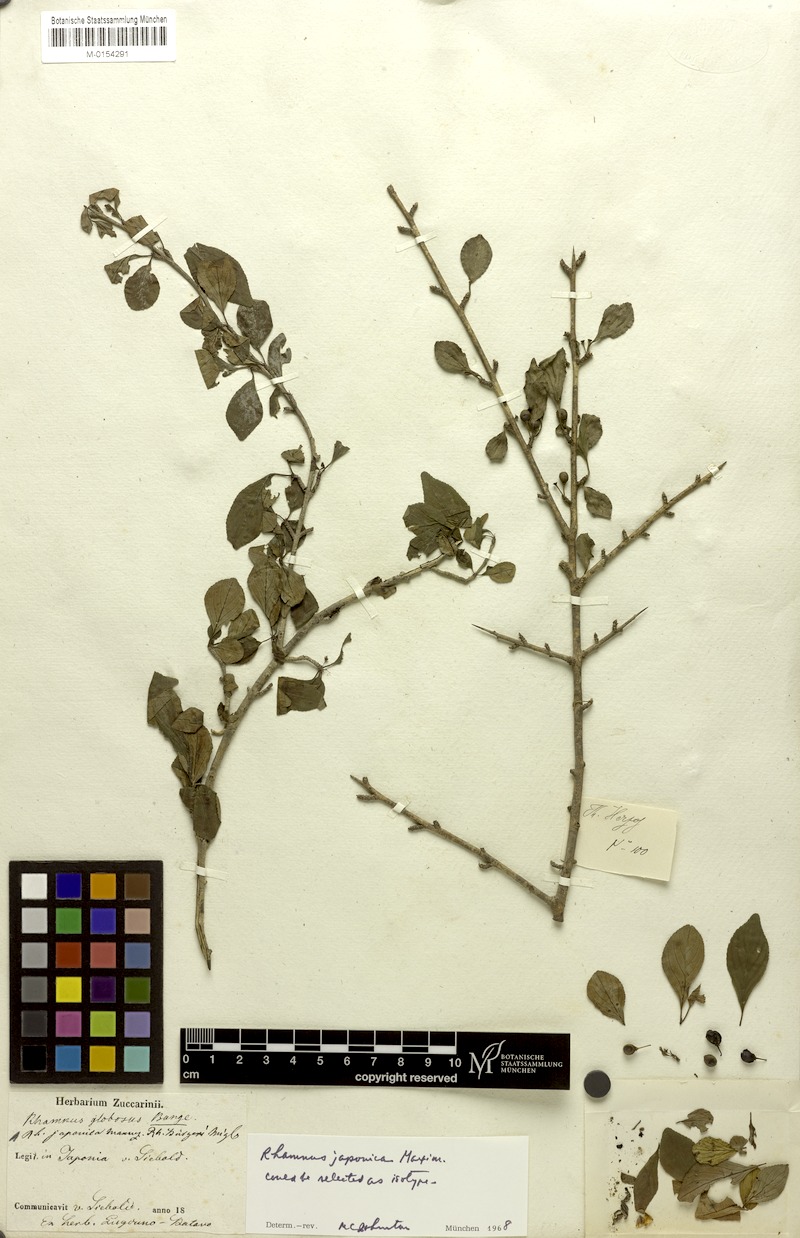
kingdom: Plantae
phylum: Tracheophyta
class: Magnoliopsida
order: Rosales
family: Rhamnaceae
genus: Rhamnus
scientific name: Rhamnus japonica
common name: Japanese buckthorn
